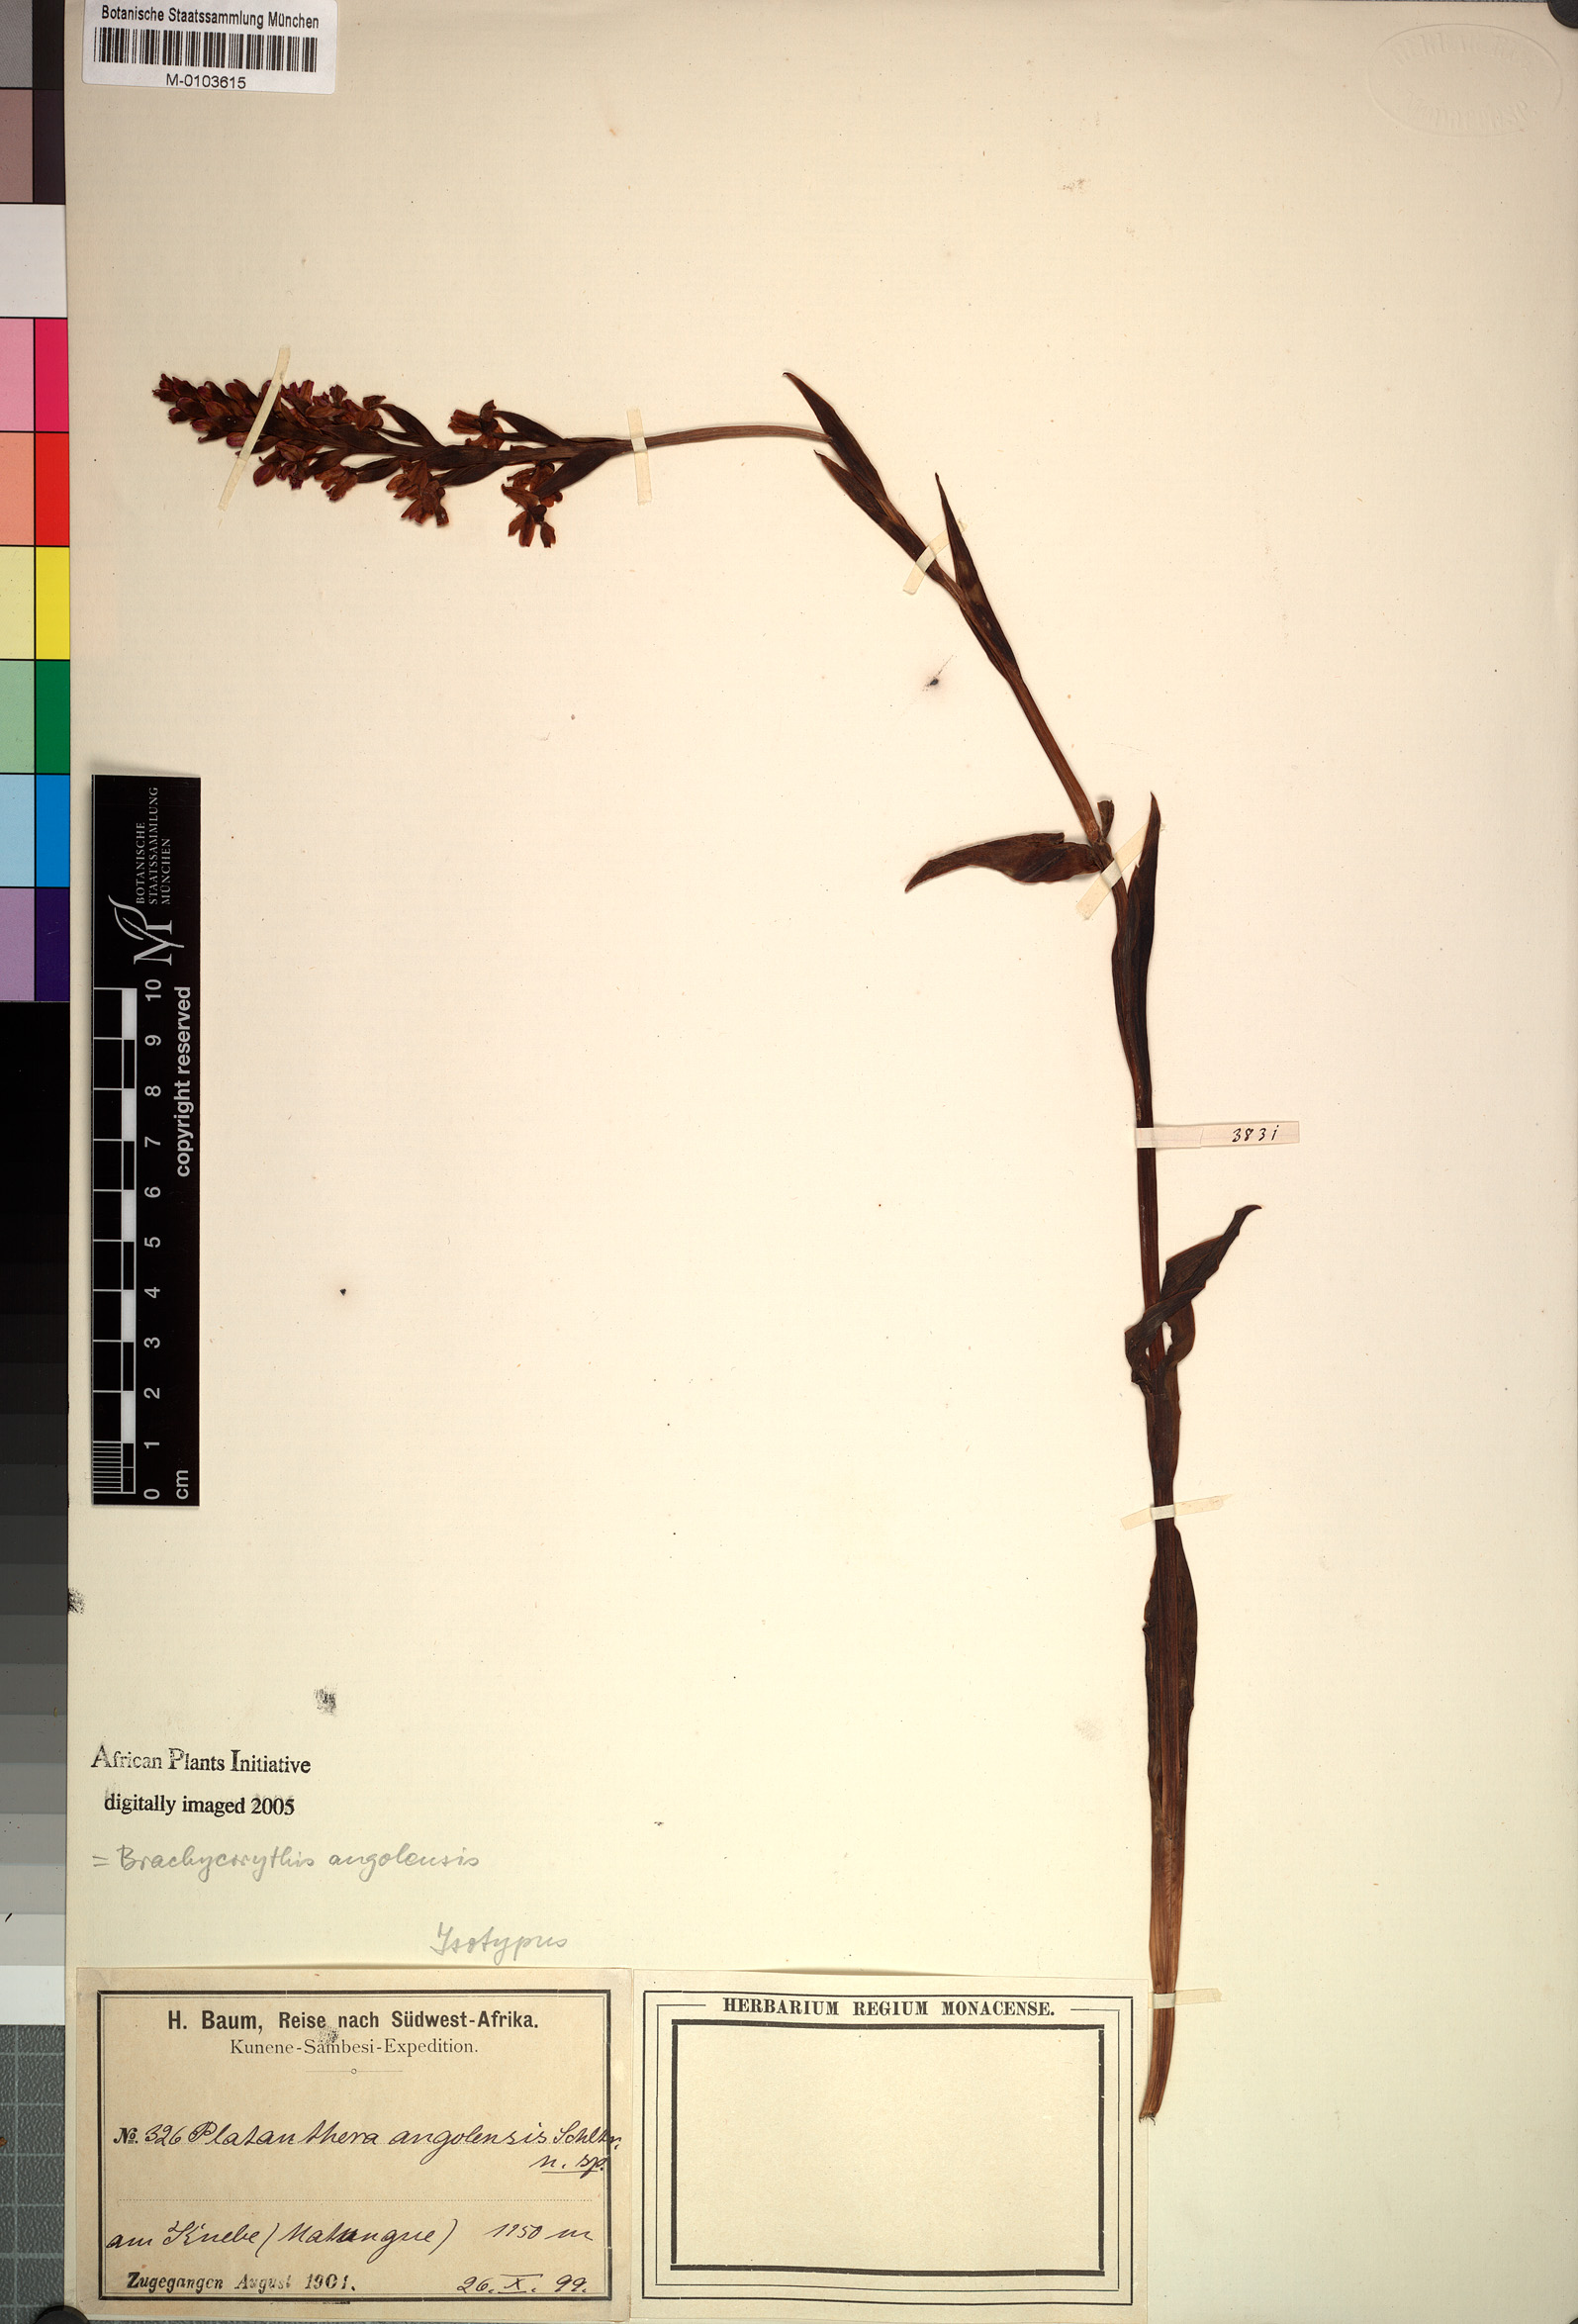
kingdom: Plantae
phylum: Tracheophyta
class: Liliopsida
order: Asparagales
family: Orchidaceae
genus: Brachycorythis
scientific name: Brachycorythis angolensis
